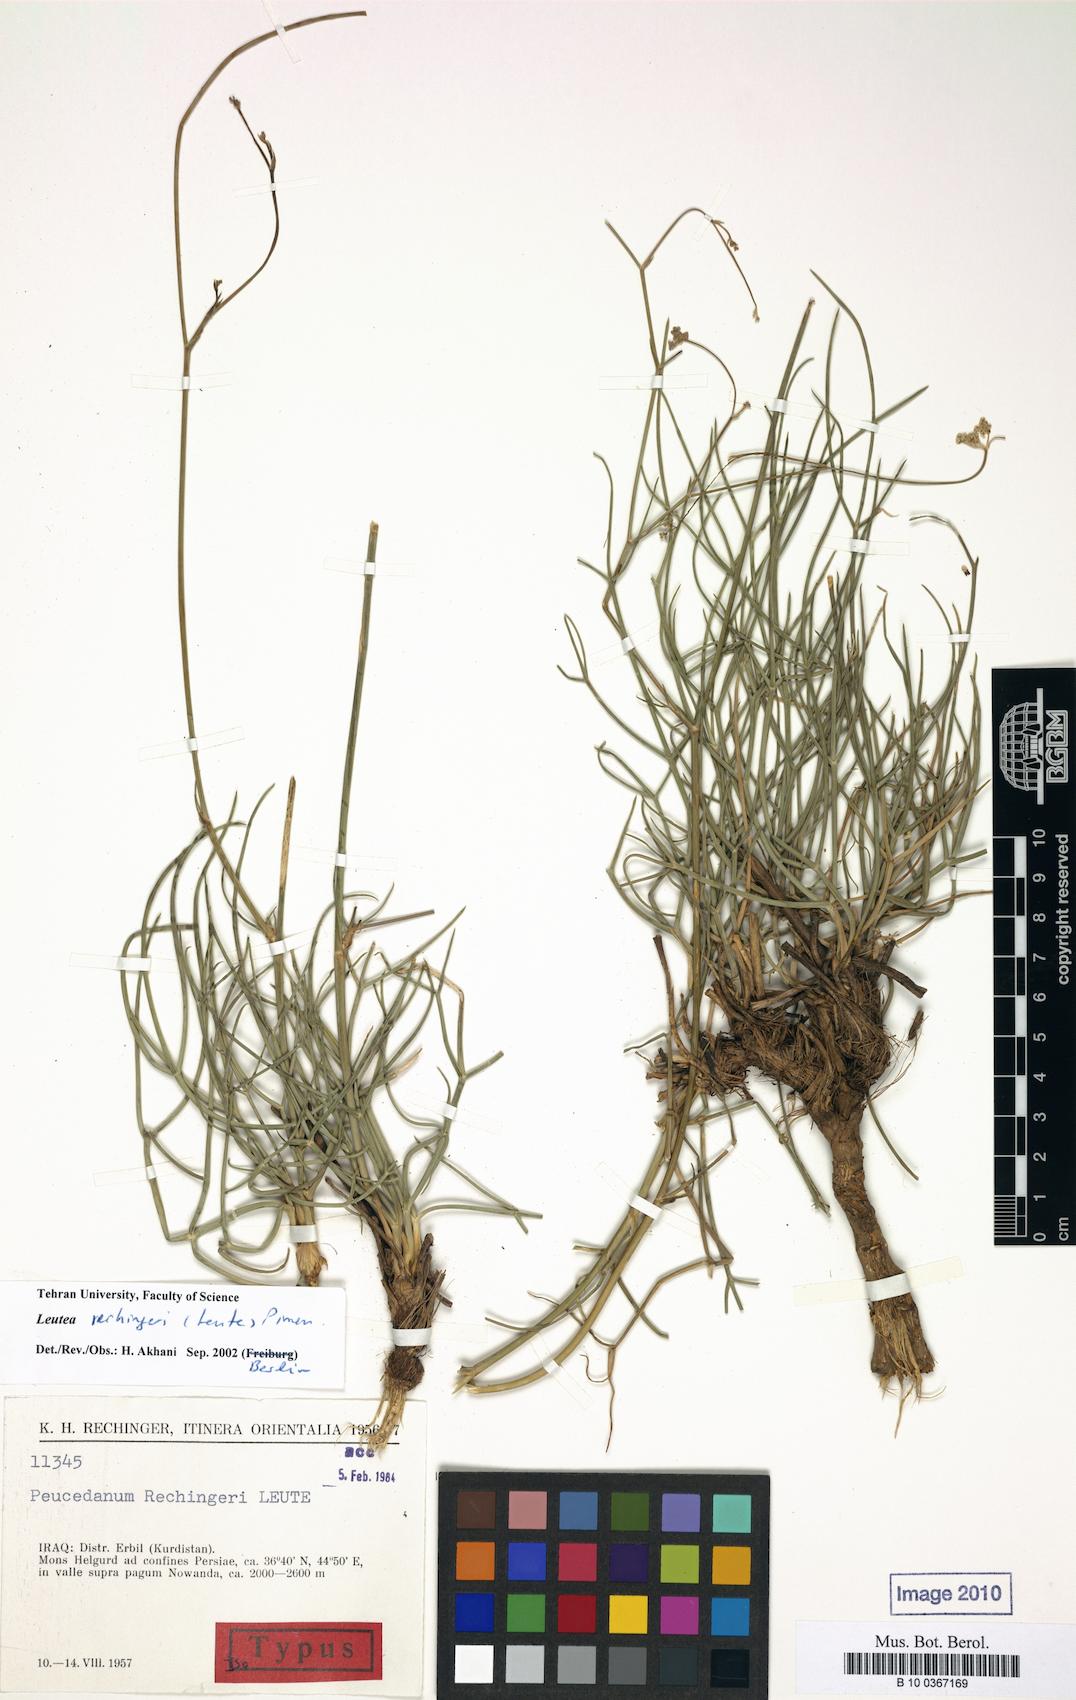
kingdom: Plantae
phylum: Tracheophyta
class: Magnoliopsida
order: Apiales
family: Apiaceae
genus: Leutea
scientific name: Leutea rechingeri
